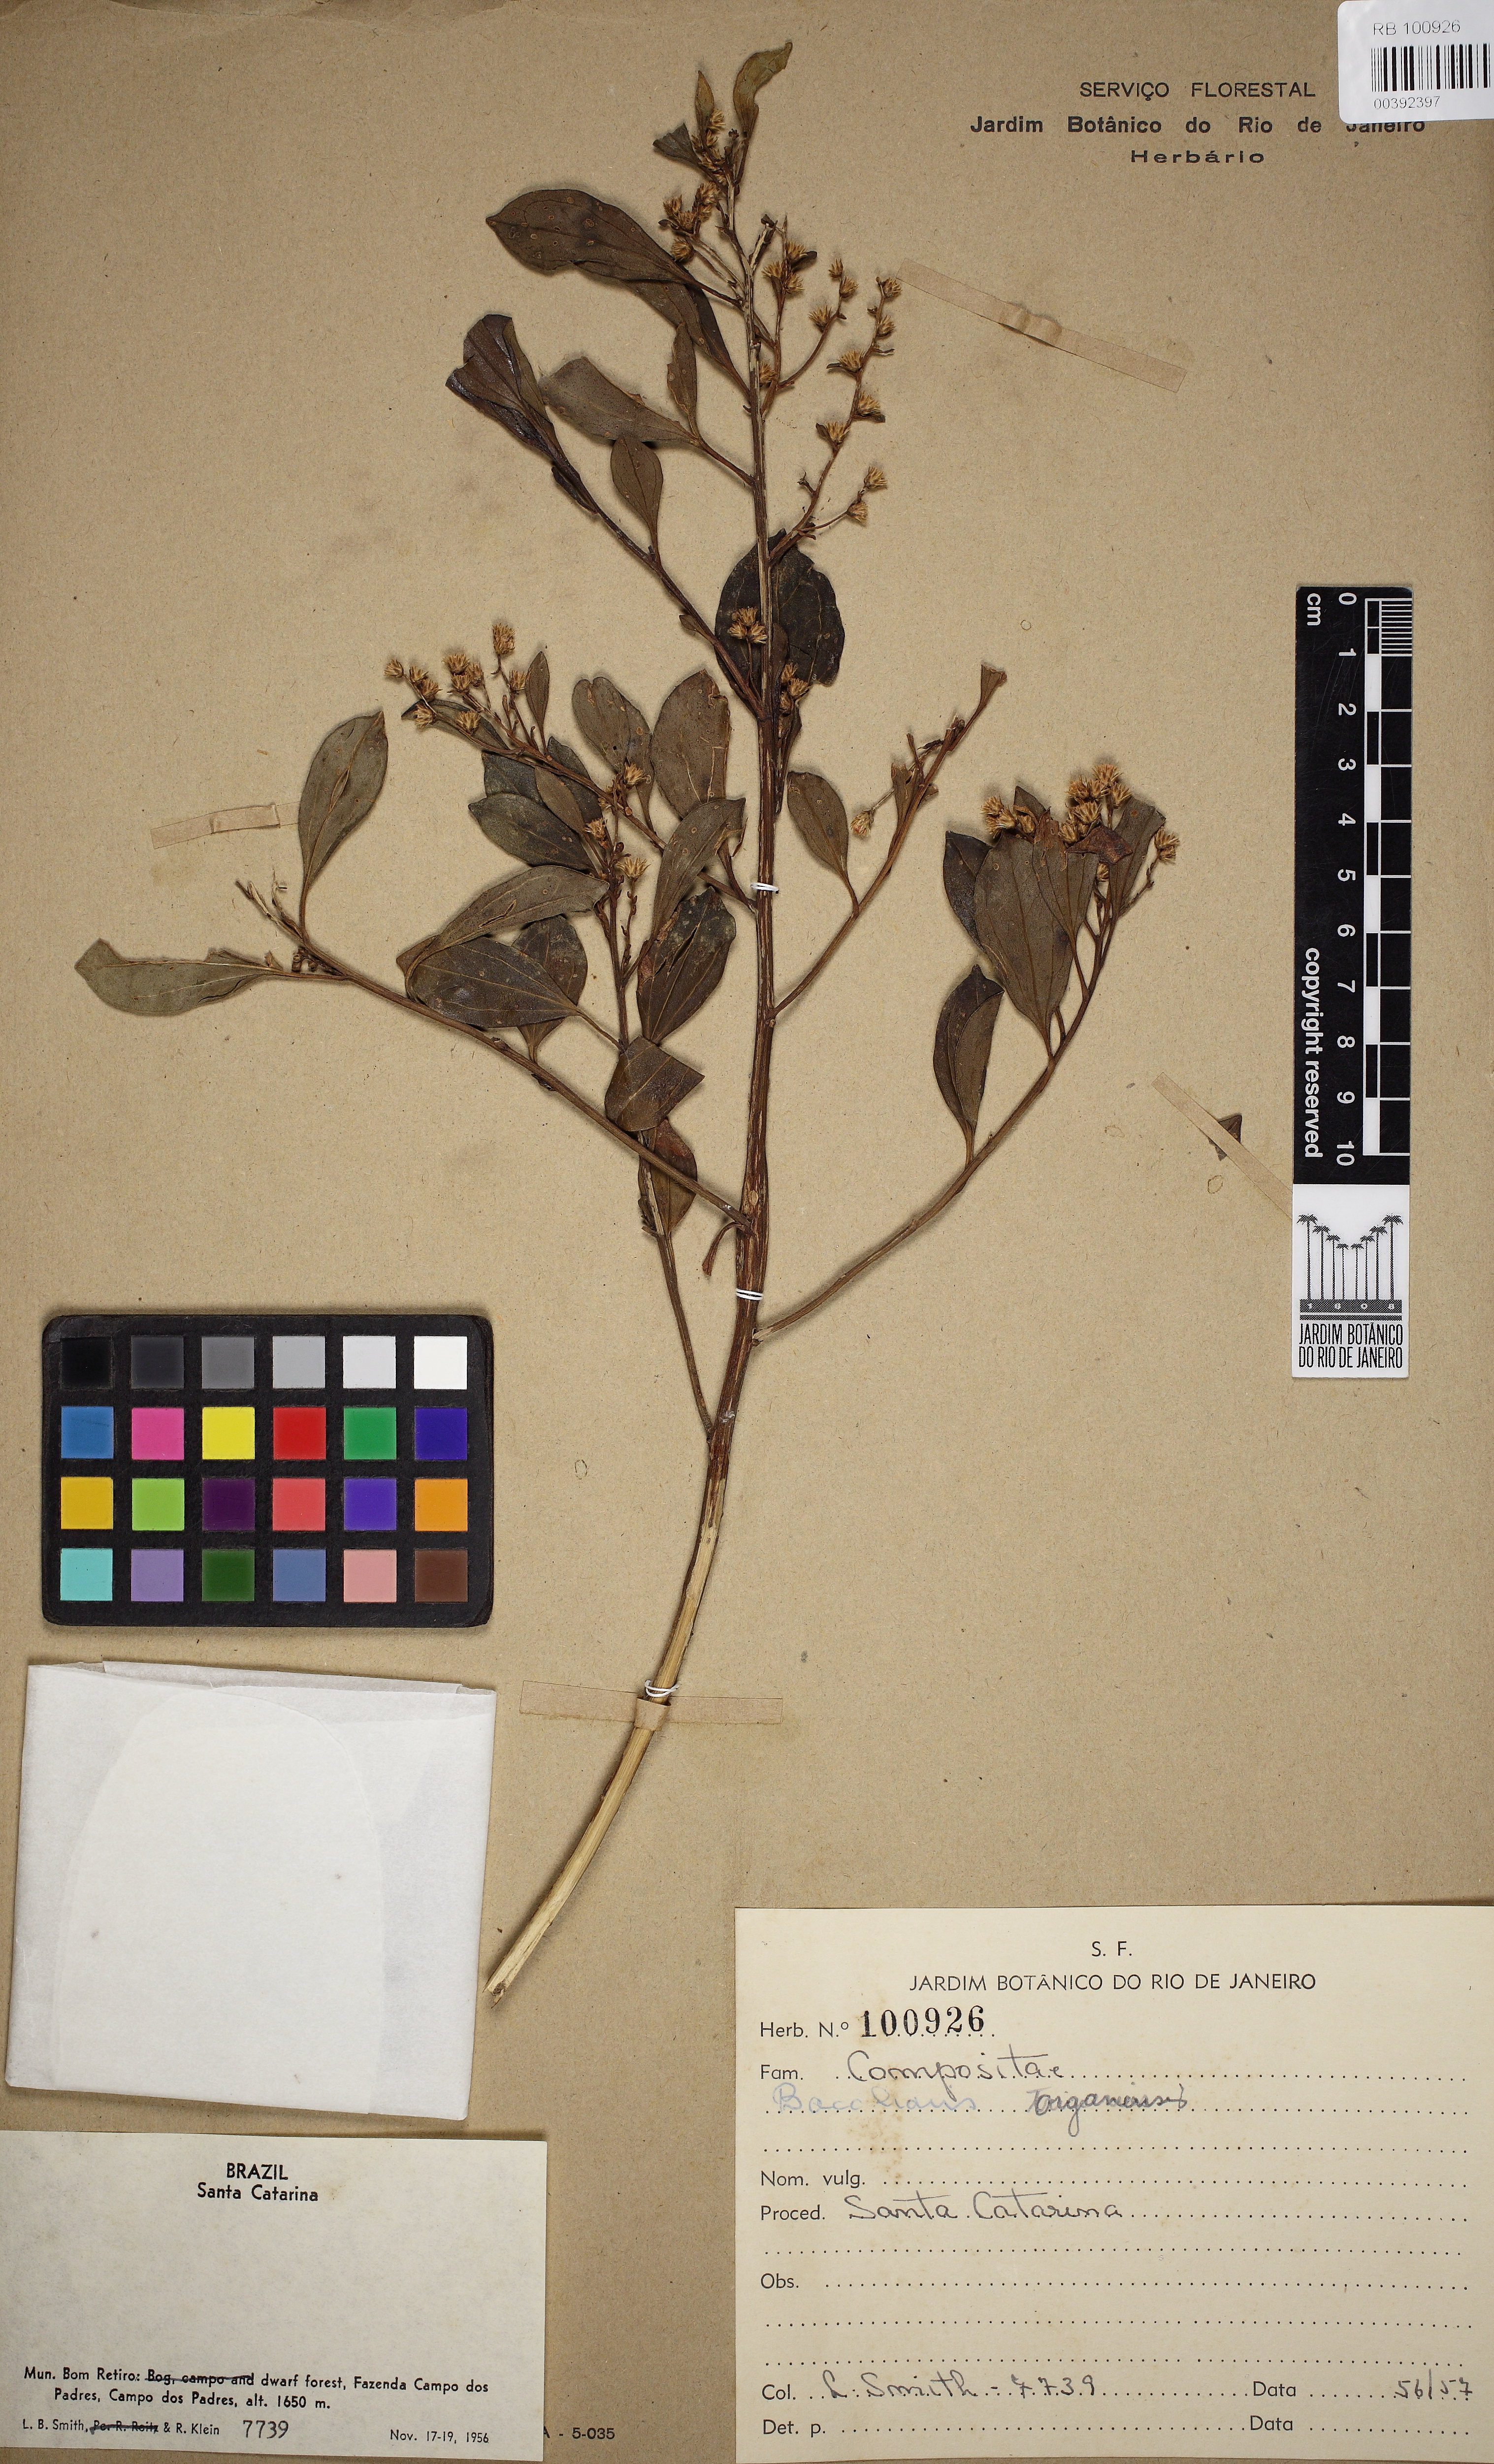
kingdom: Plantae
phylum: Tracheophyta
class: Magnoliopsida
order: Asterales
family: Asteraceae
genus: Baccharis
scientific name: Baccharis organensis
